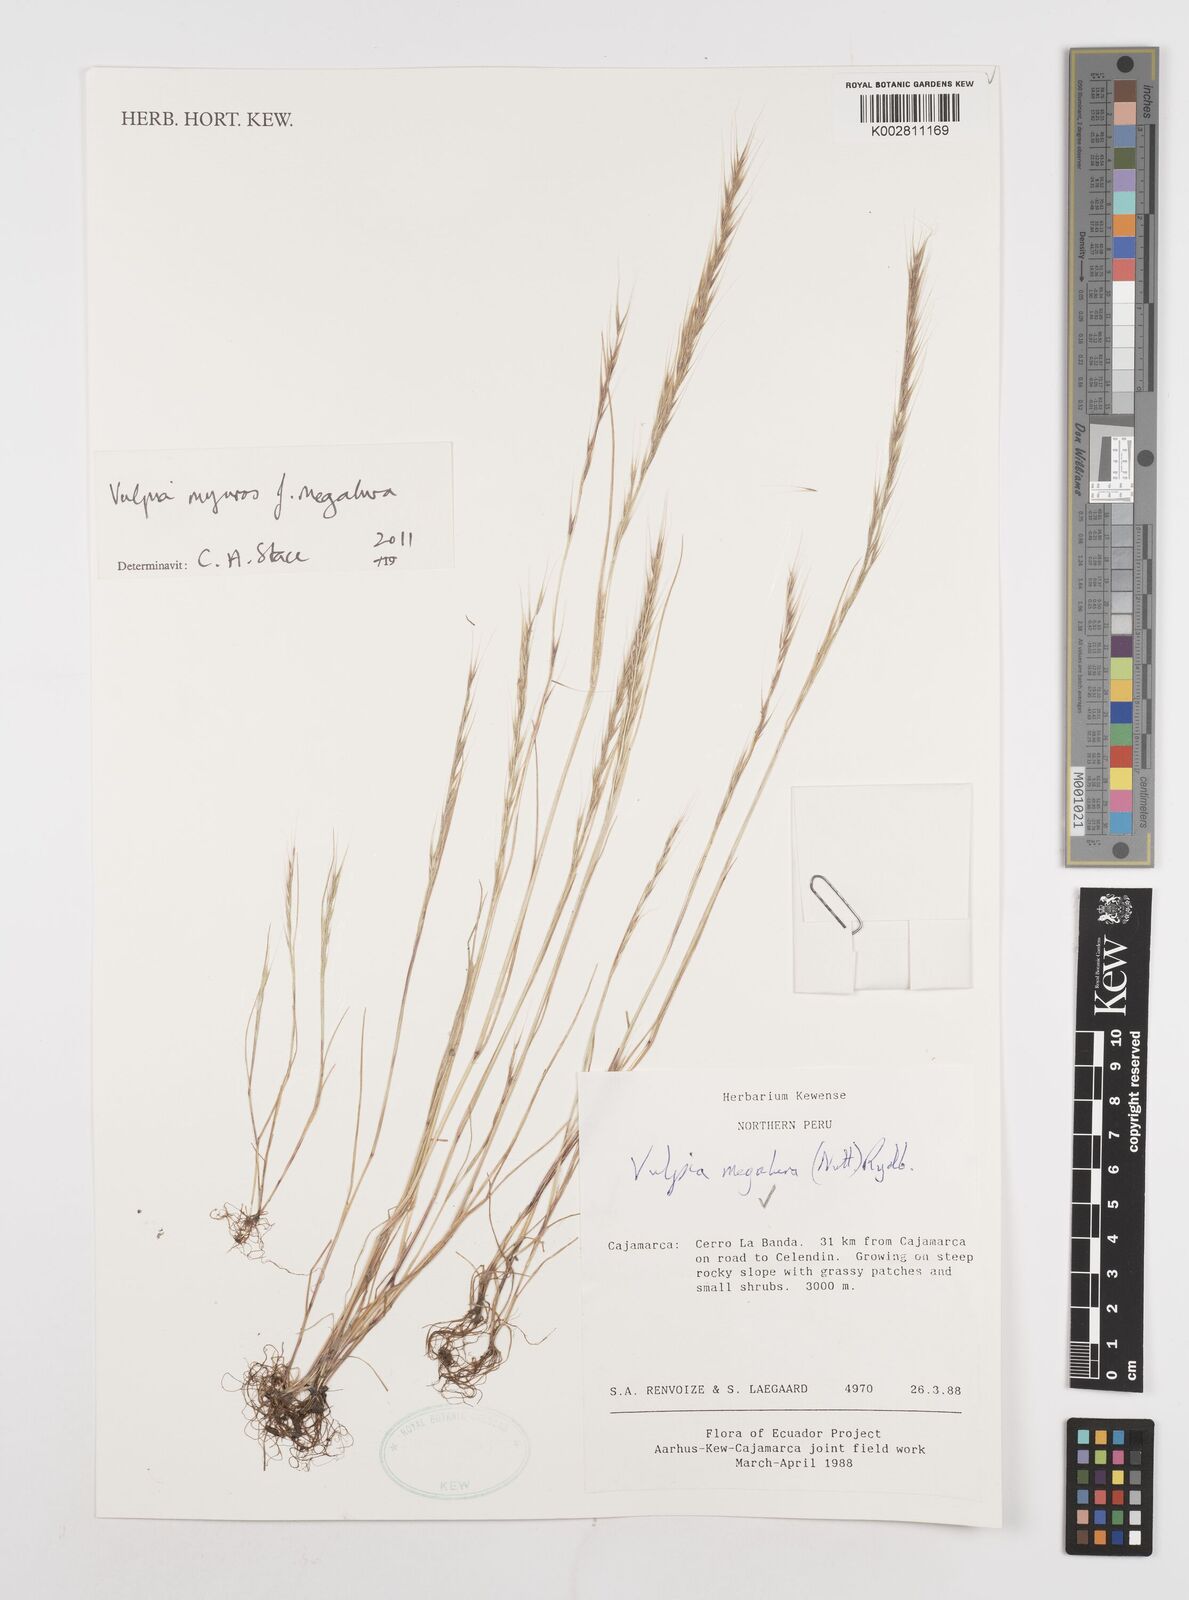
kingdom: Plantae
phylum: Tracheophyta
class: Liliopsida
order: Poales
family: Poaceae
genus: Festuca
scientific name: Festuca myuros
